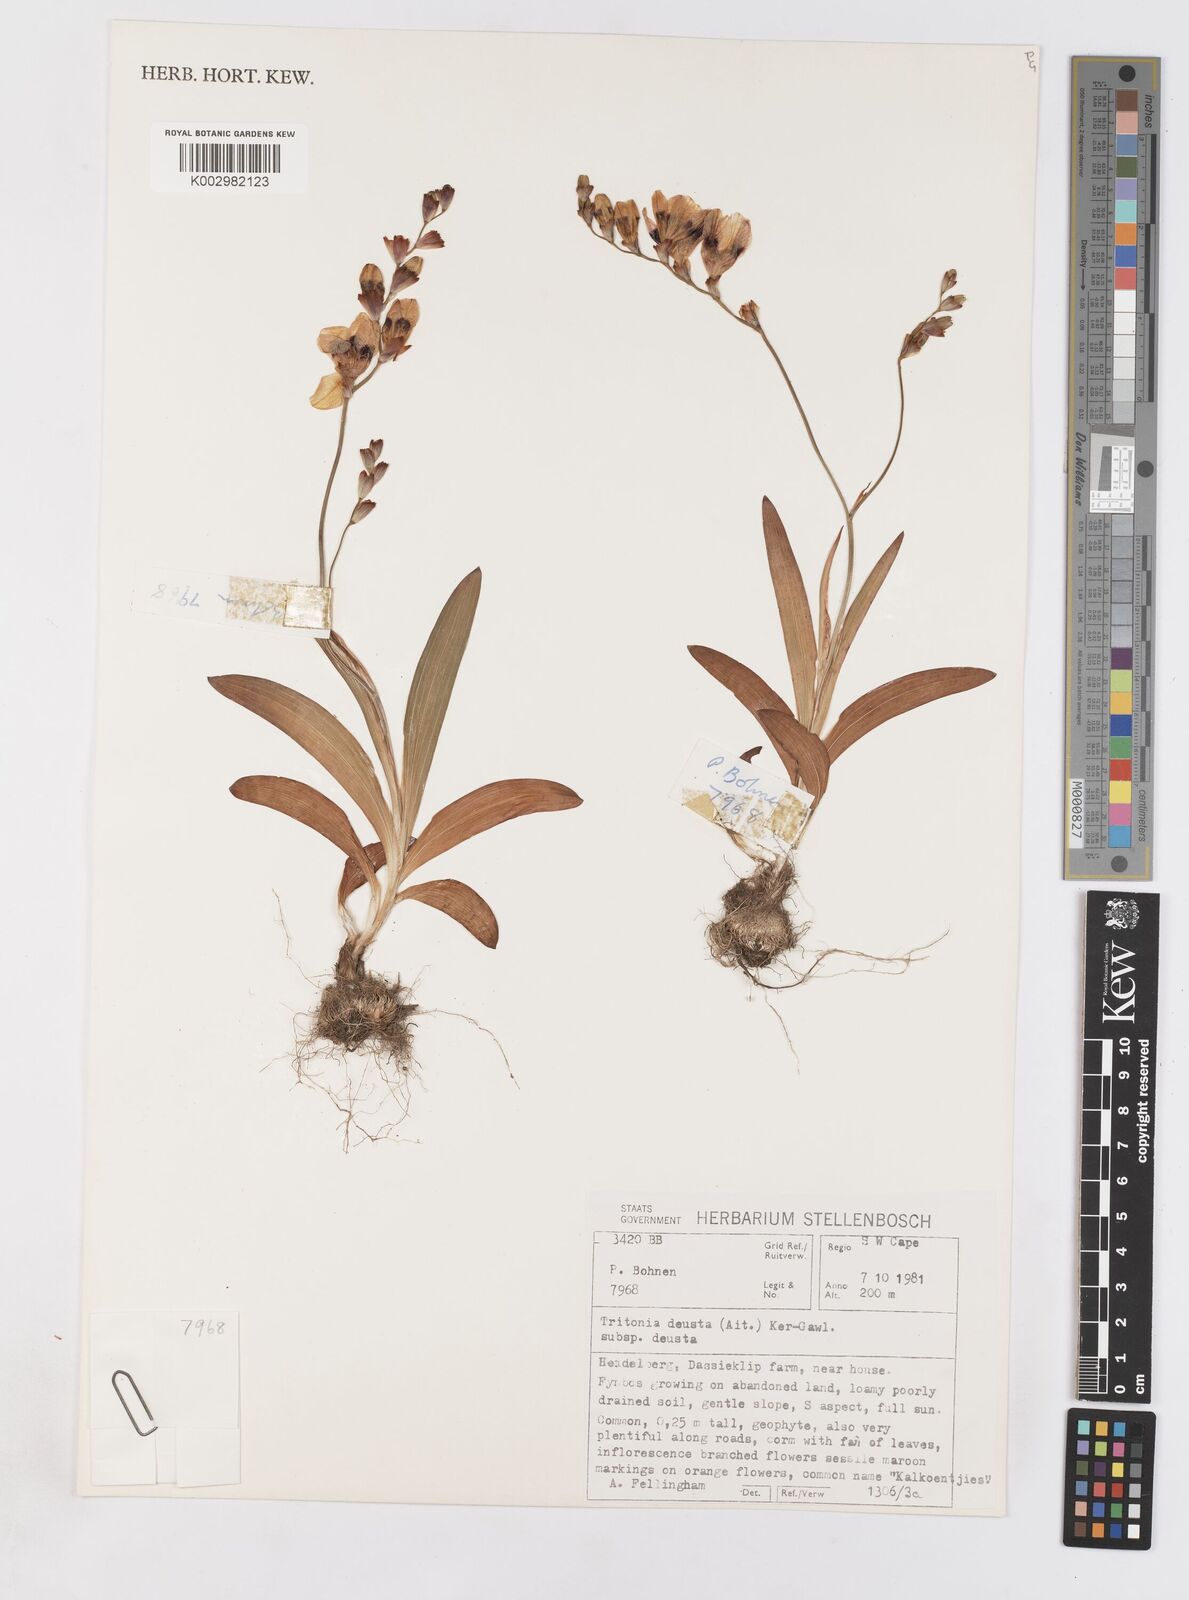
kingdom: Plantae
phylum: Tracheophyta
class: Liliopsida
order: Asparagales
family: Iridaceae
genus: Tritonia
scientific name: Tritonia deusta
